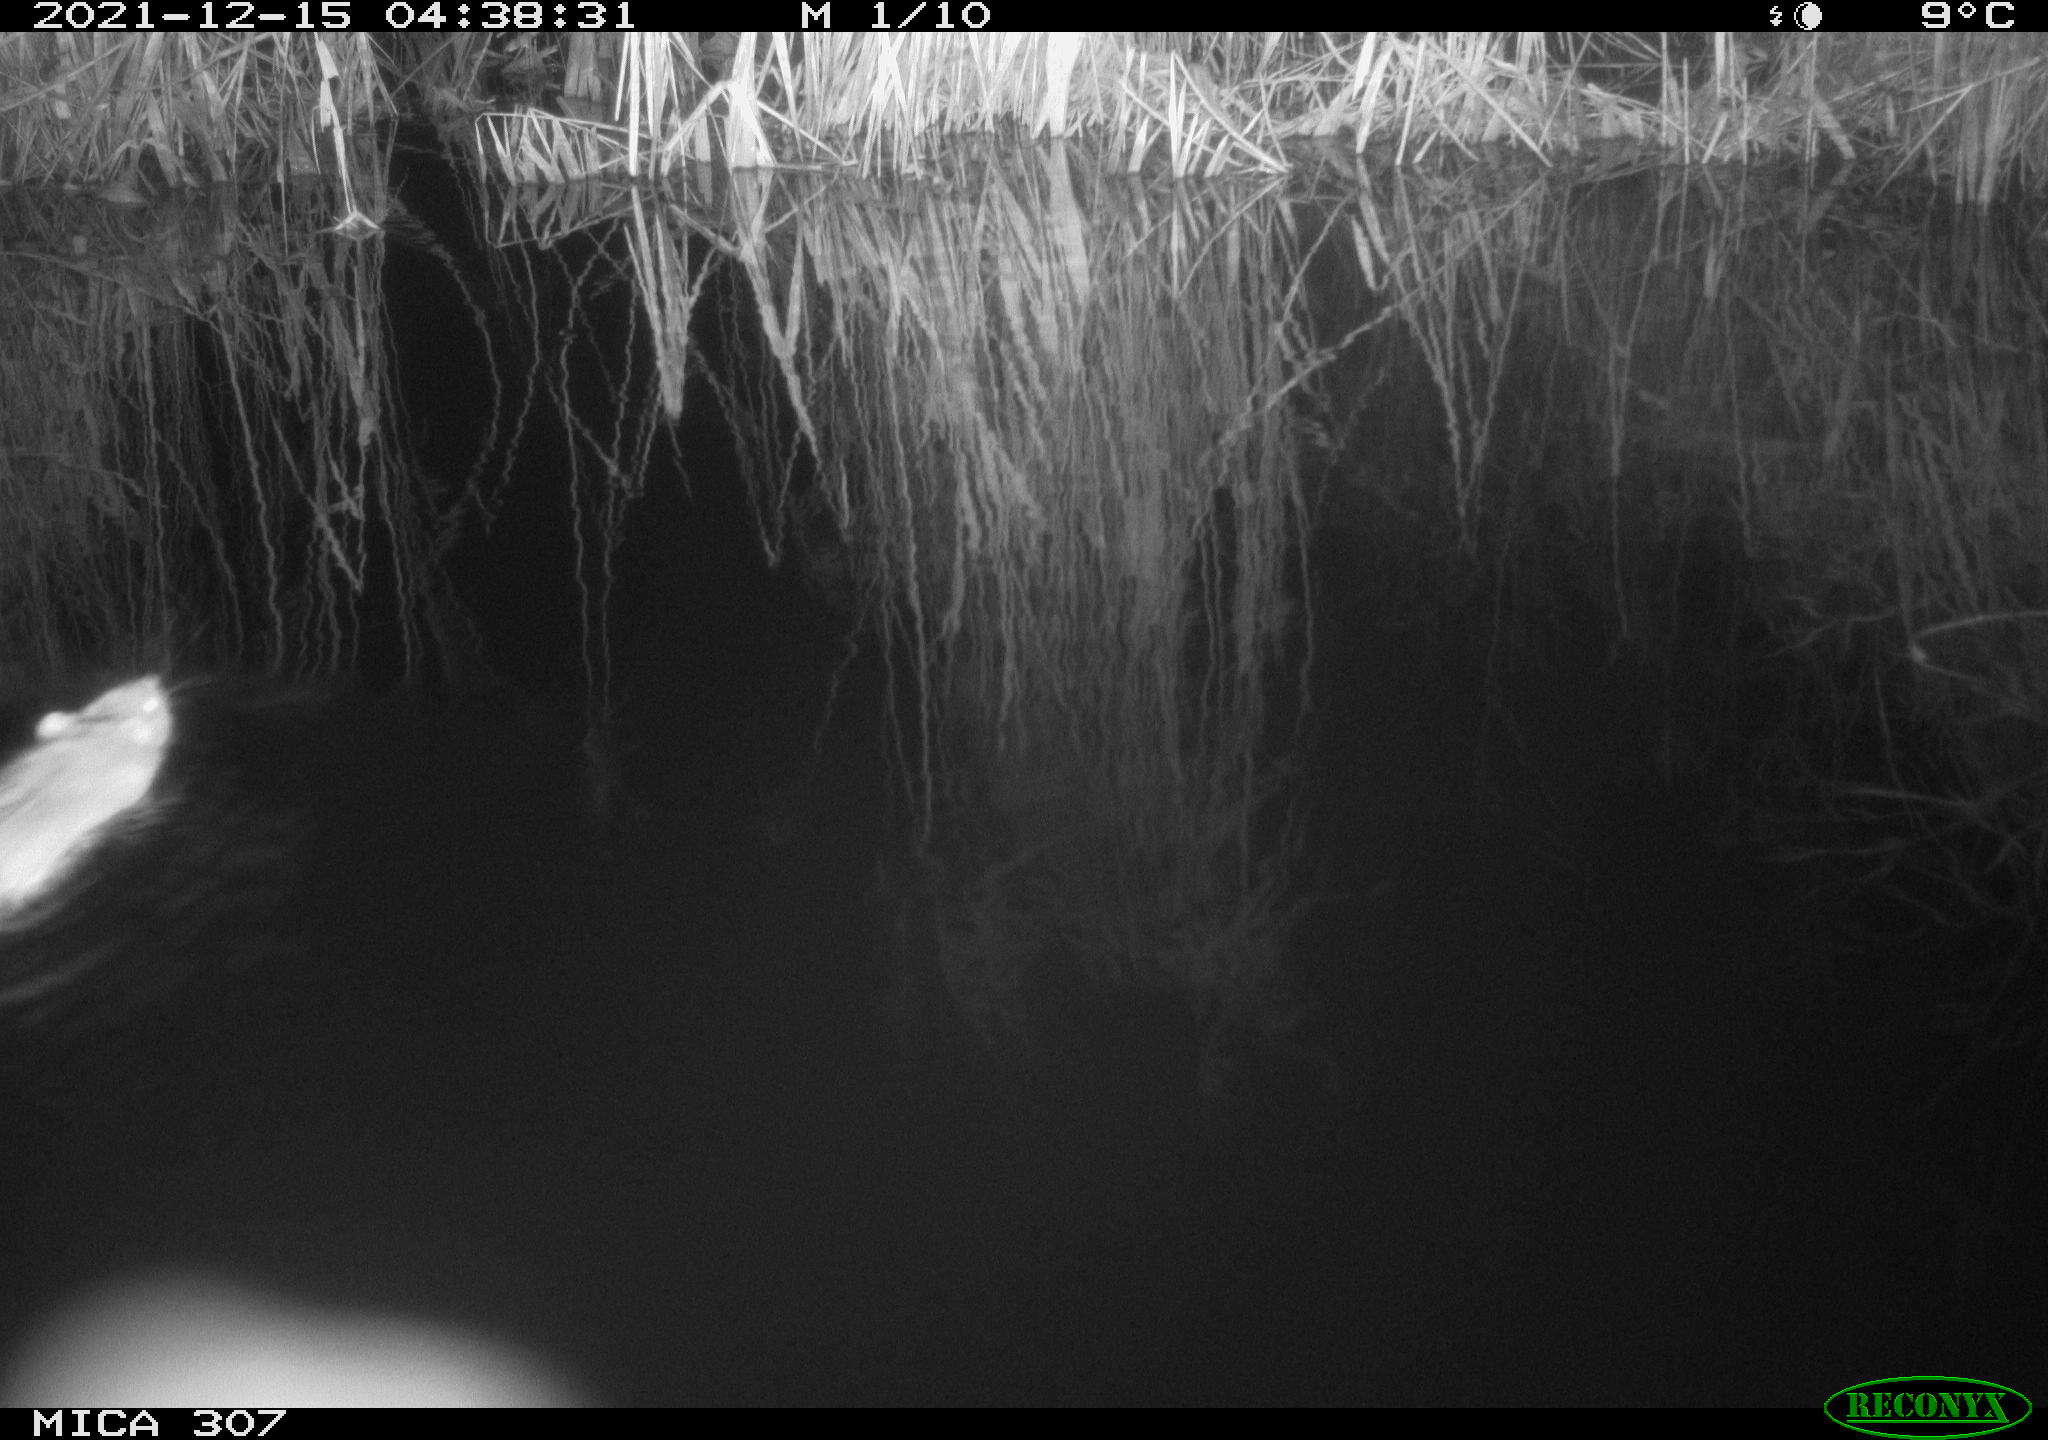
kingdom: Animalia
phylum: Chordata
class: Mammalia
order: Rodentia
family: Muridae
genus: Rattus
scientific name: Rattus norvegicus
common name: Brown rat
